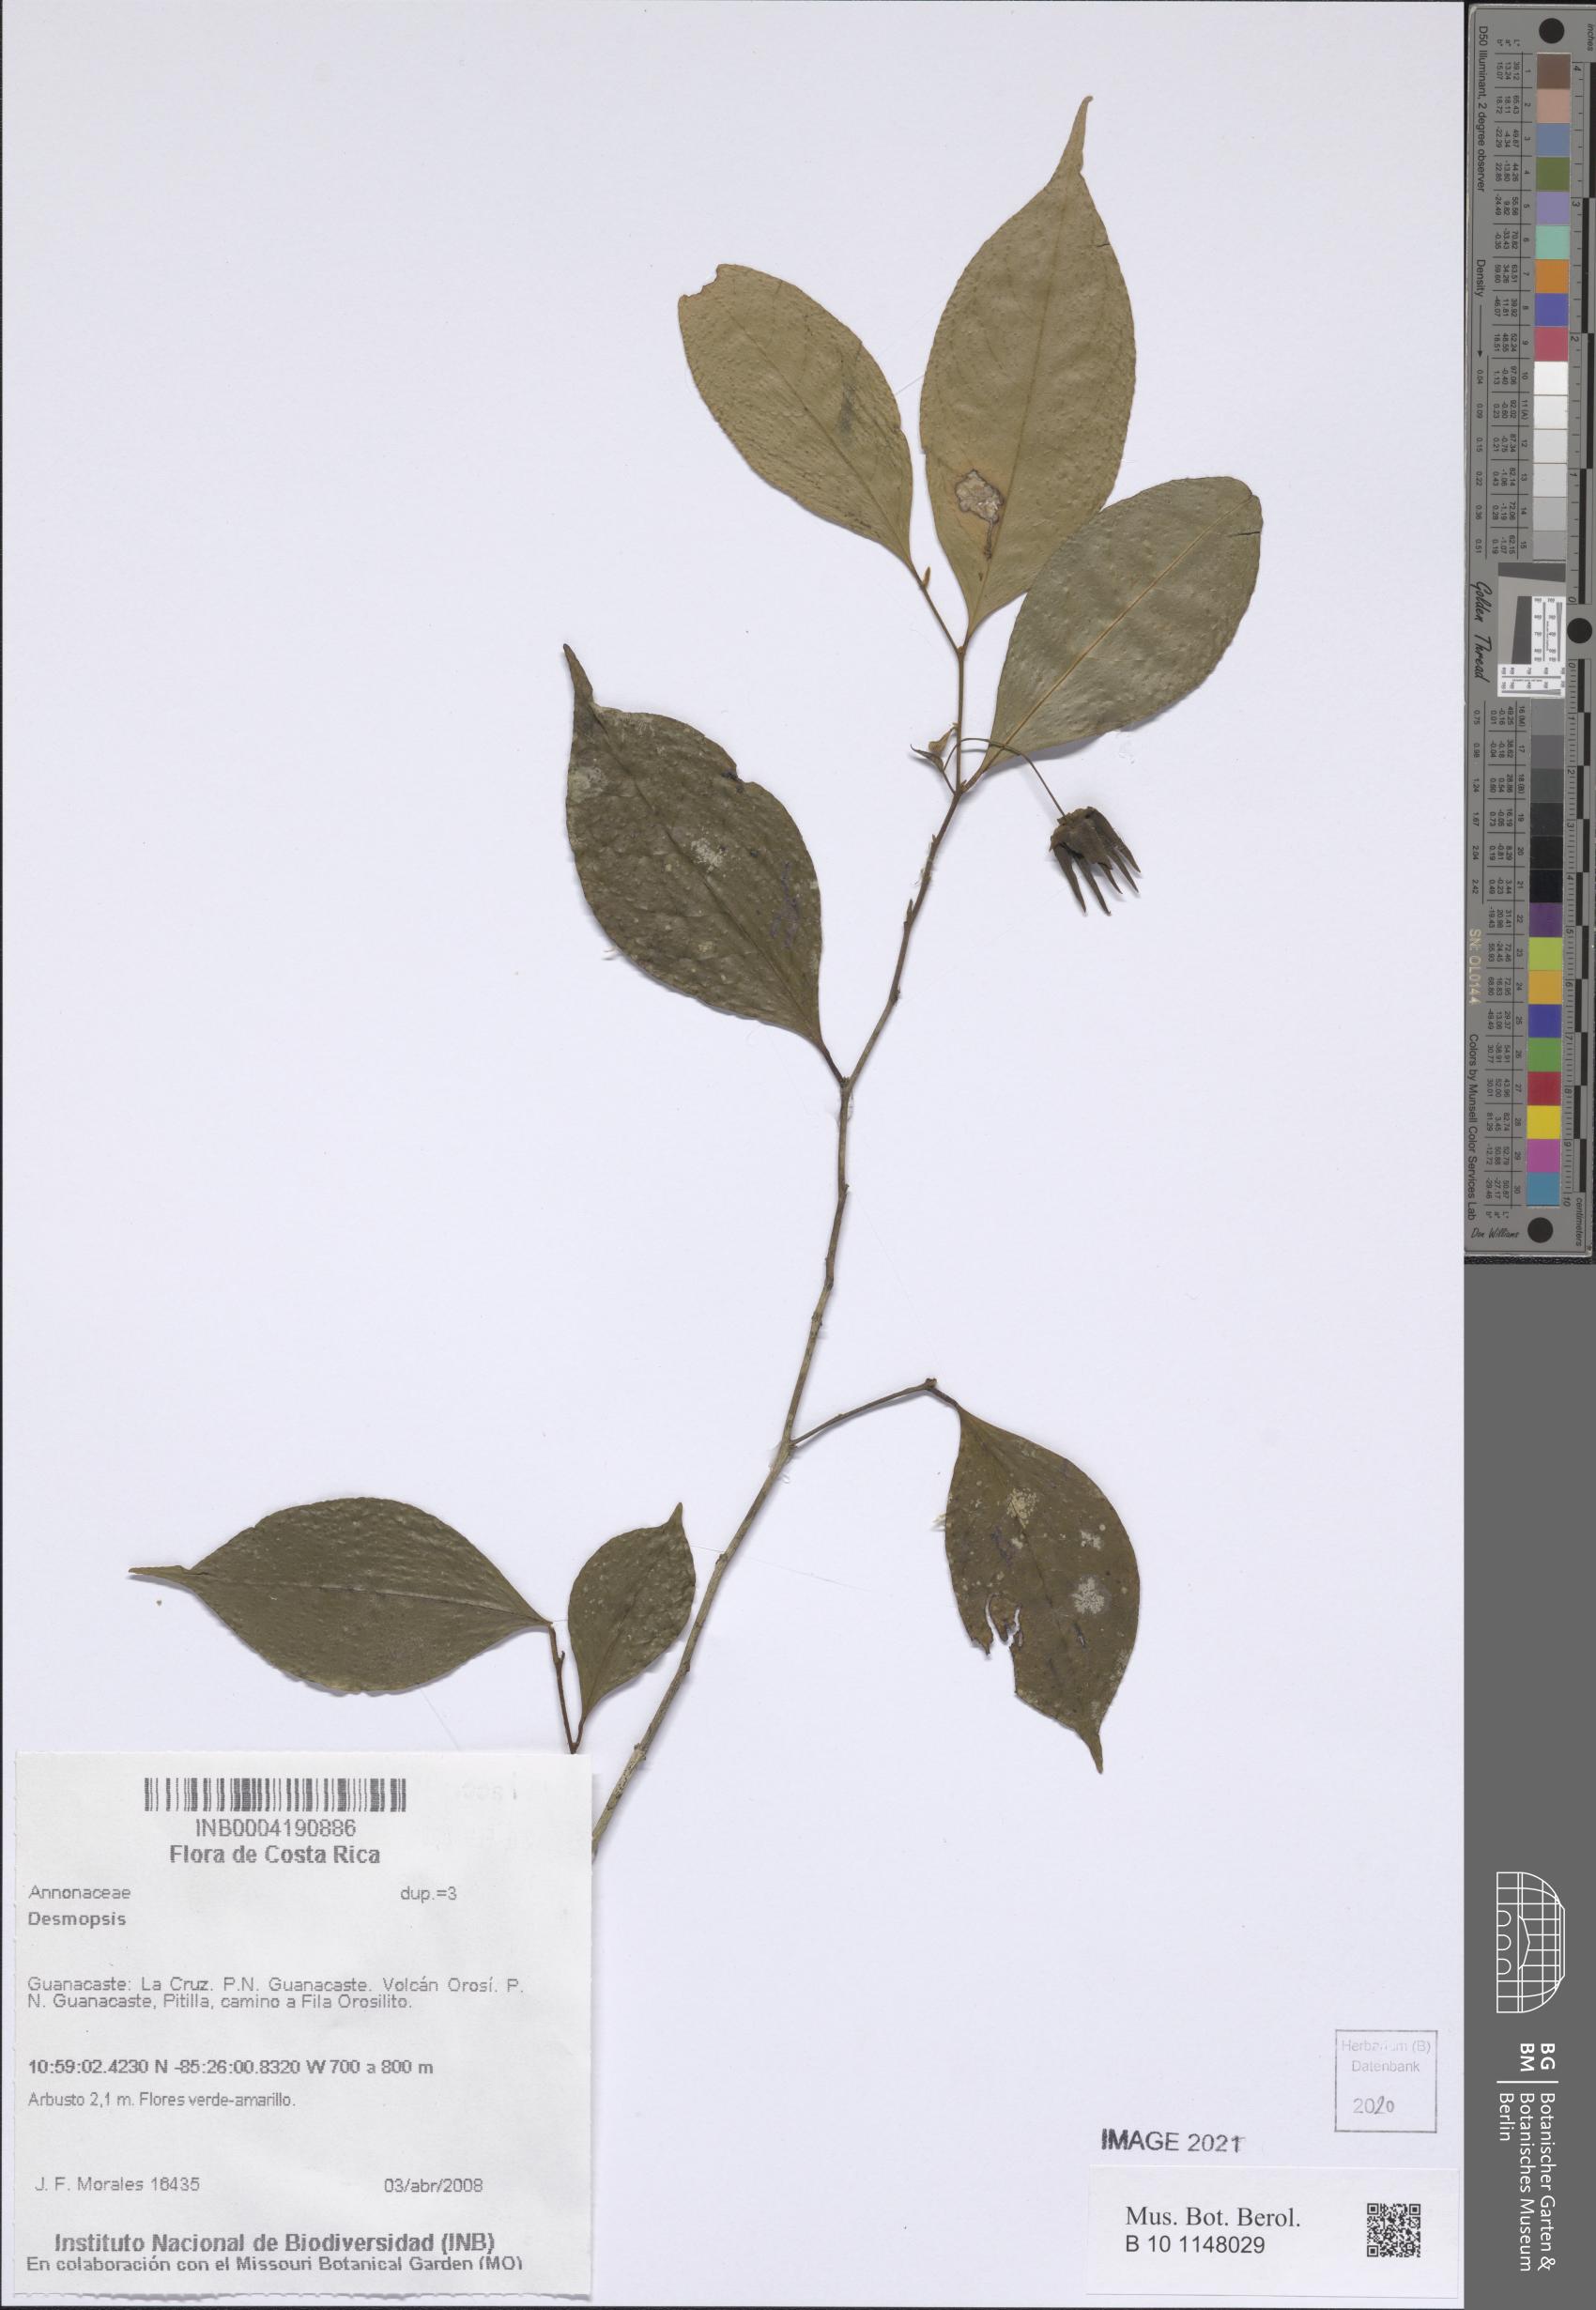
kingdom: Plantae
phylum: Tracheophyta
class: Magnoliopsida
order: Magnoliales
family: Annonaceae
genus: Desmopsis
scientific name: Desmopsis
